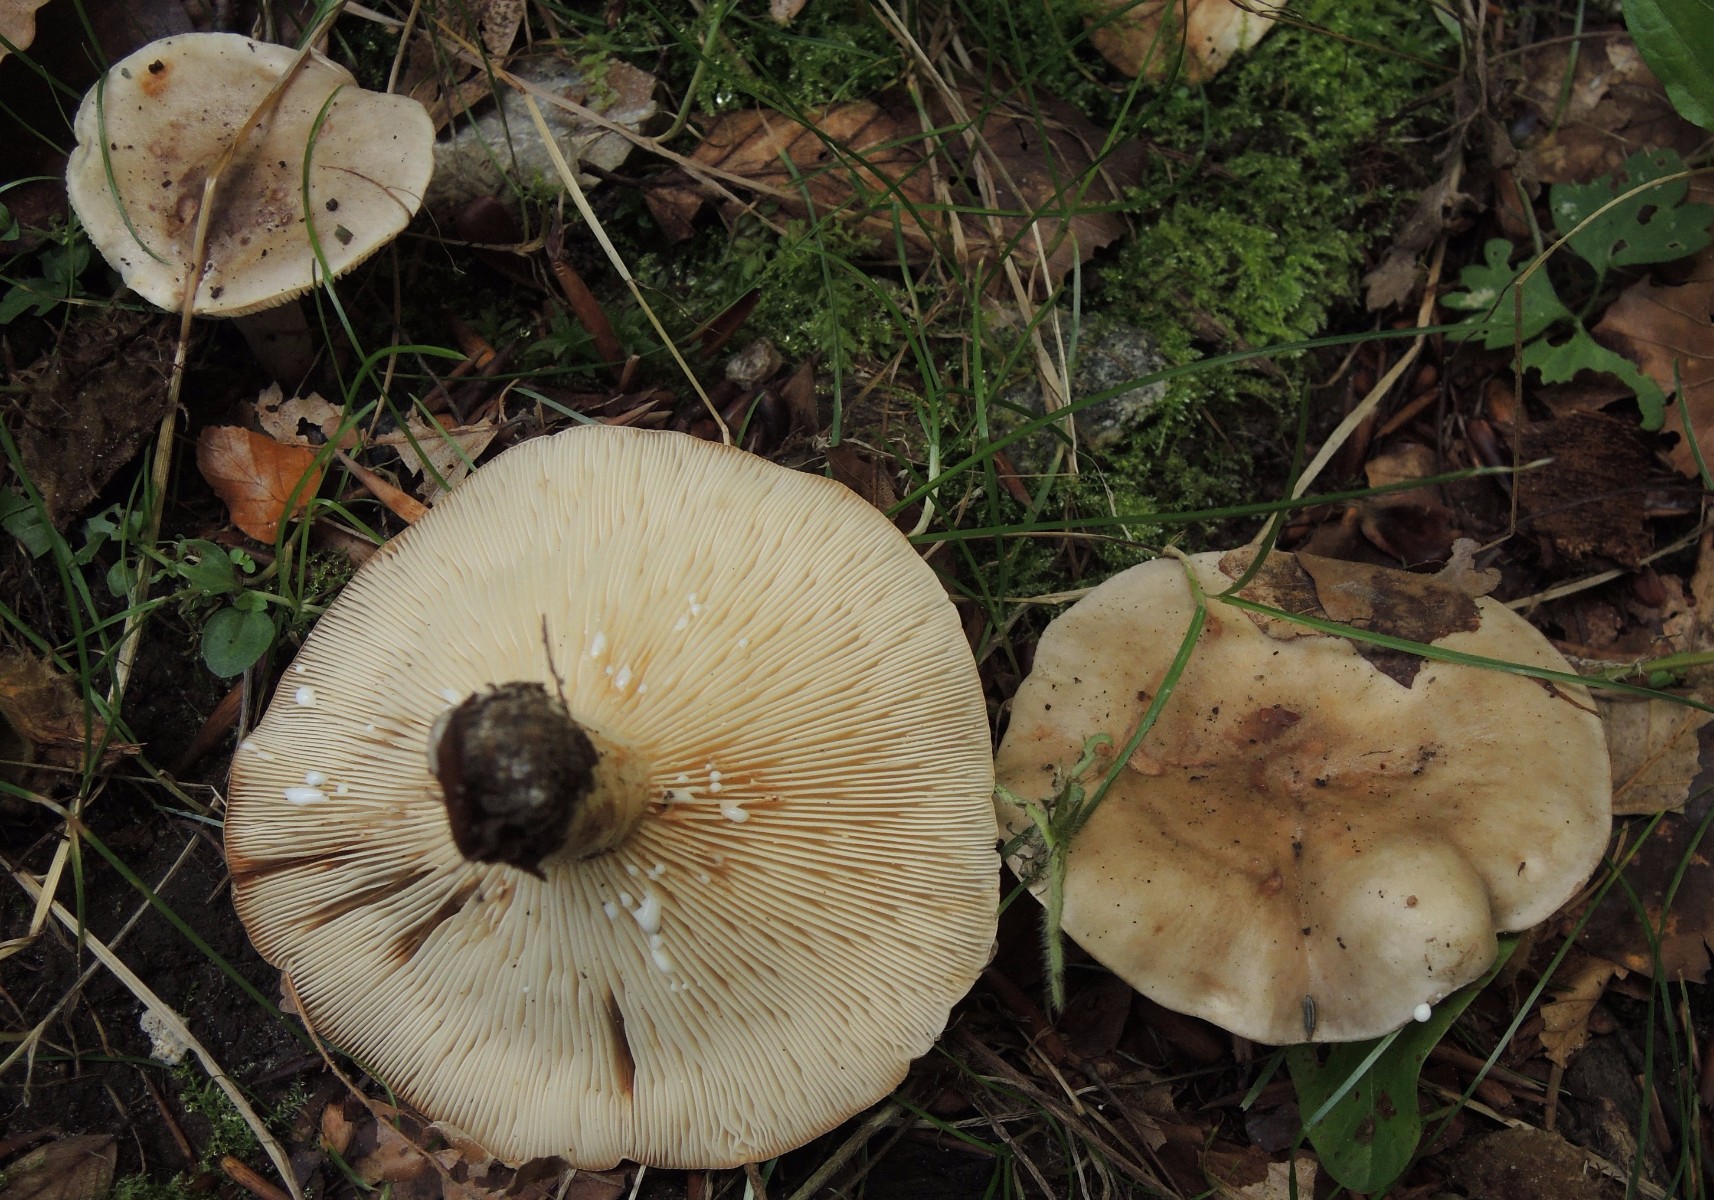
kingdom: Fungi
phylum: Basidiomycota
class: Agaricomycetes
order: Russulales
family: Russulaceae
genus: Lactarius
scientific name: Lactarius fluens
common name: lysrandet mælkehat
